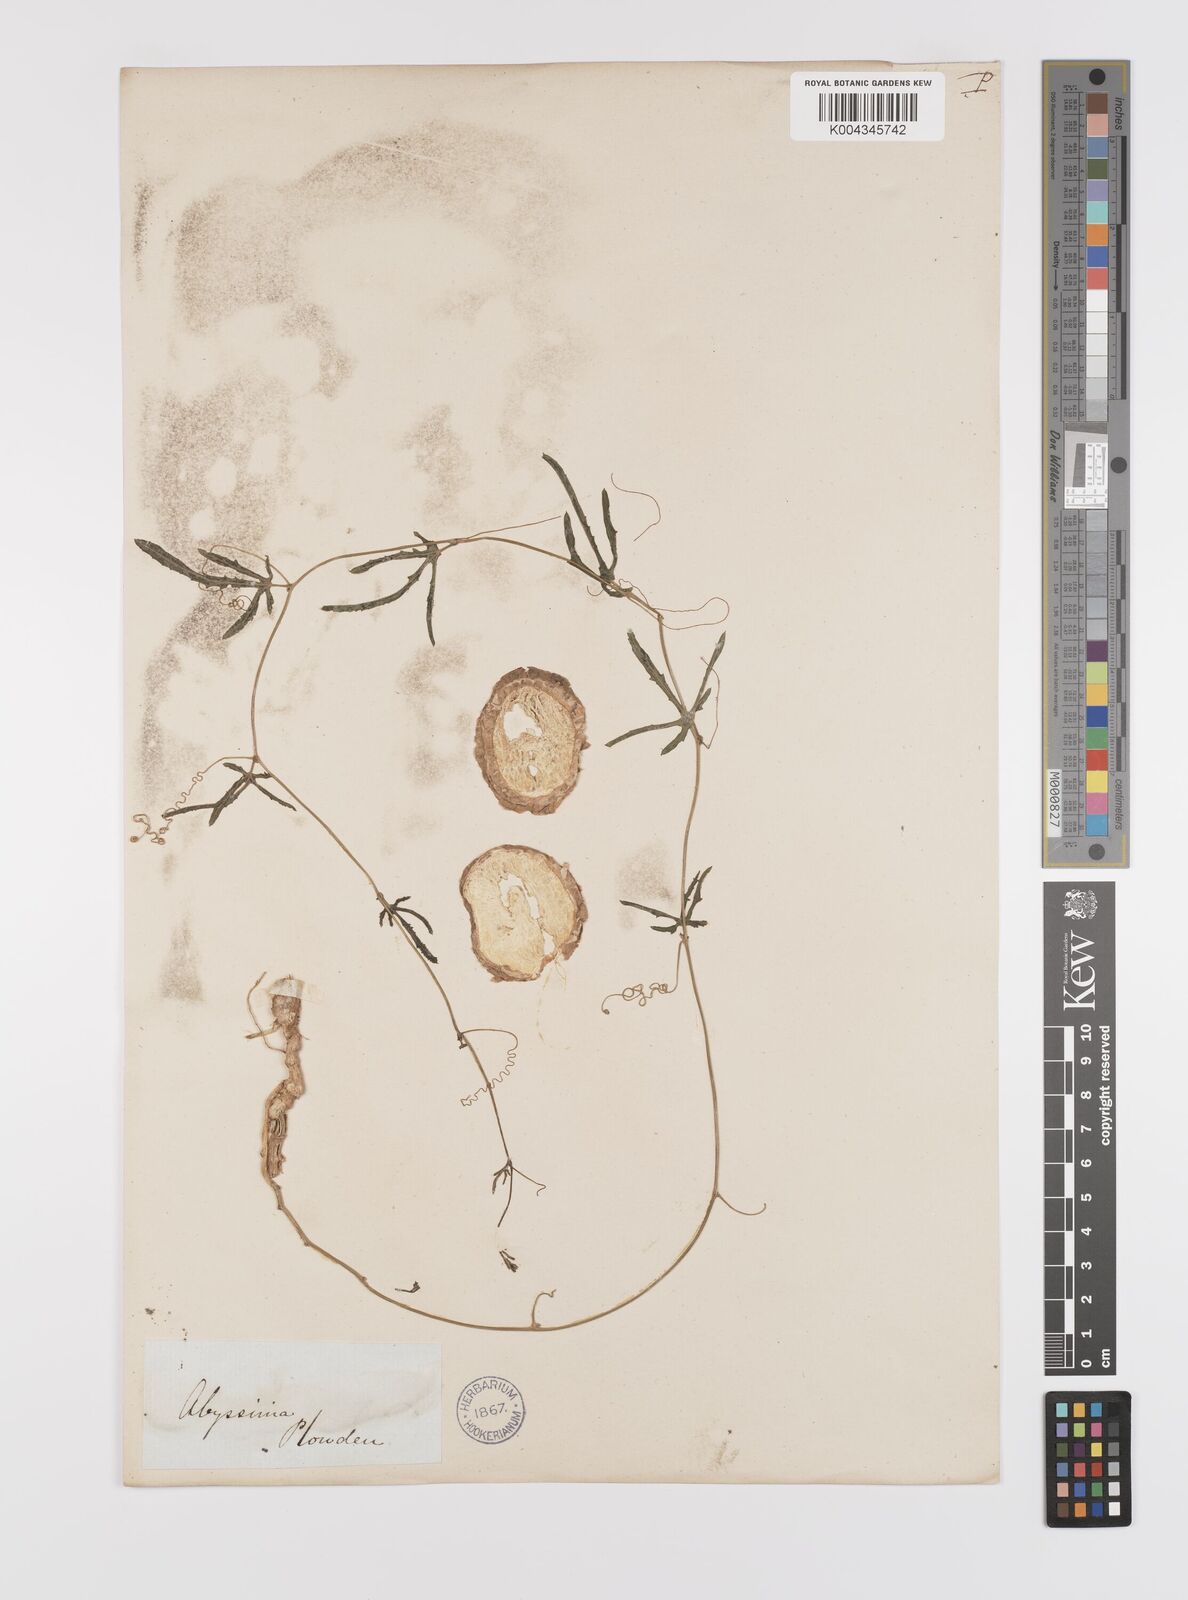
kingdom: Plantae
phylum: Tracheophyta
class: Magnoliopsida
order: Cucurbitales
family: Cucurbitaceae
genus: Coccinia
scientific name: Coccinia adoensis
